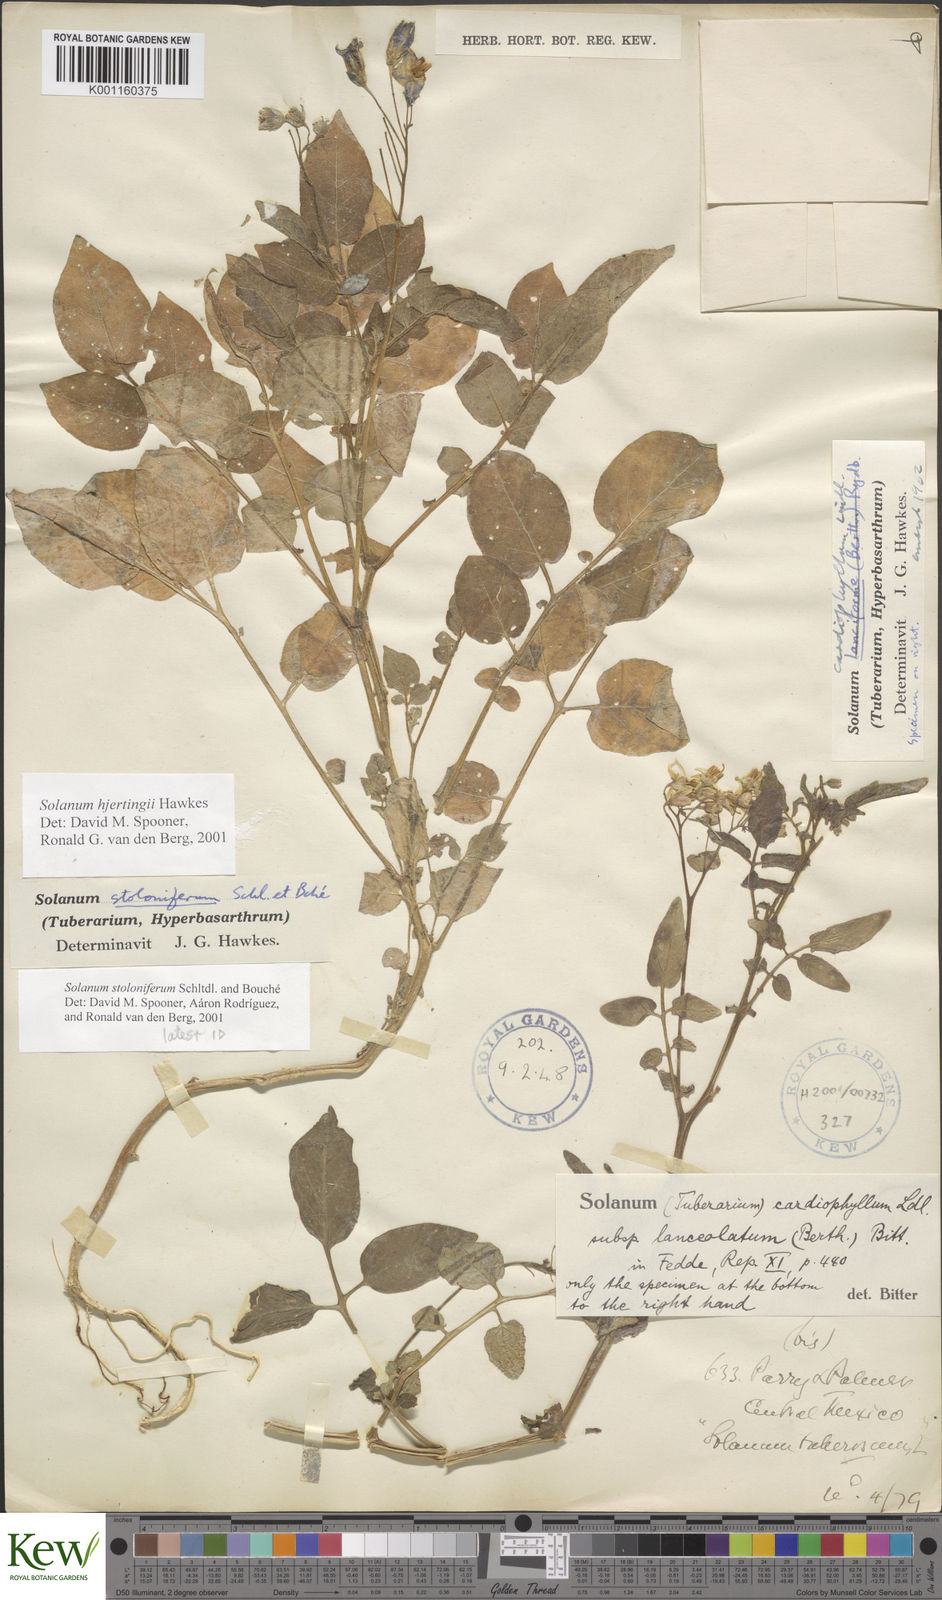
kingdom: Plantae
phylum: Tracheophyta
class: Magnoliopsida
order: Solanales
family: Solanaceae
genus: Solanum
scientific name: Solanum hjertingii
